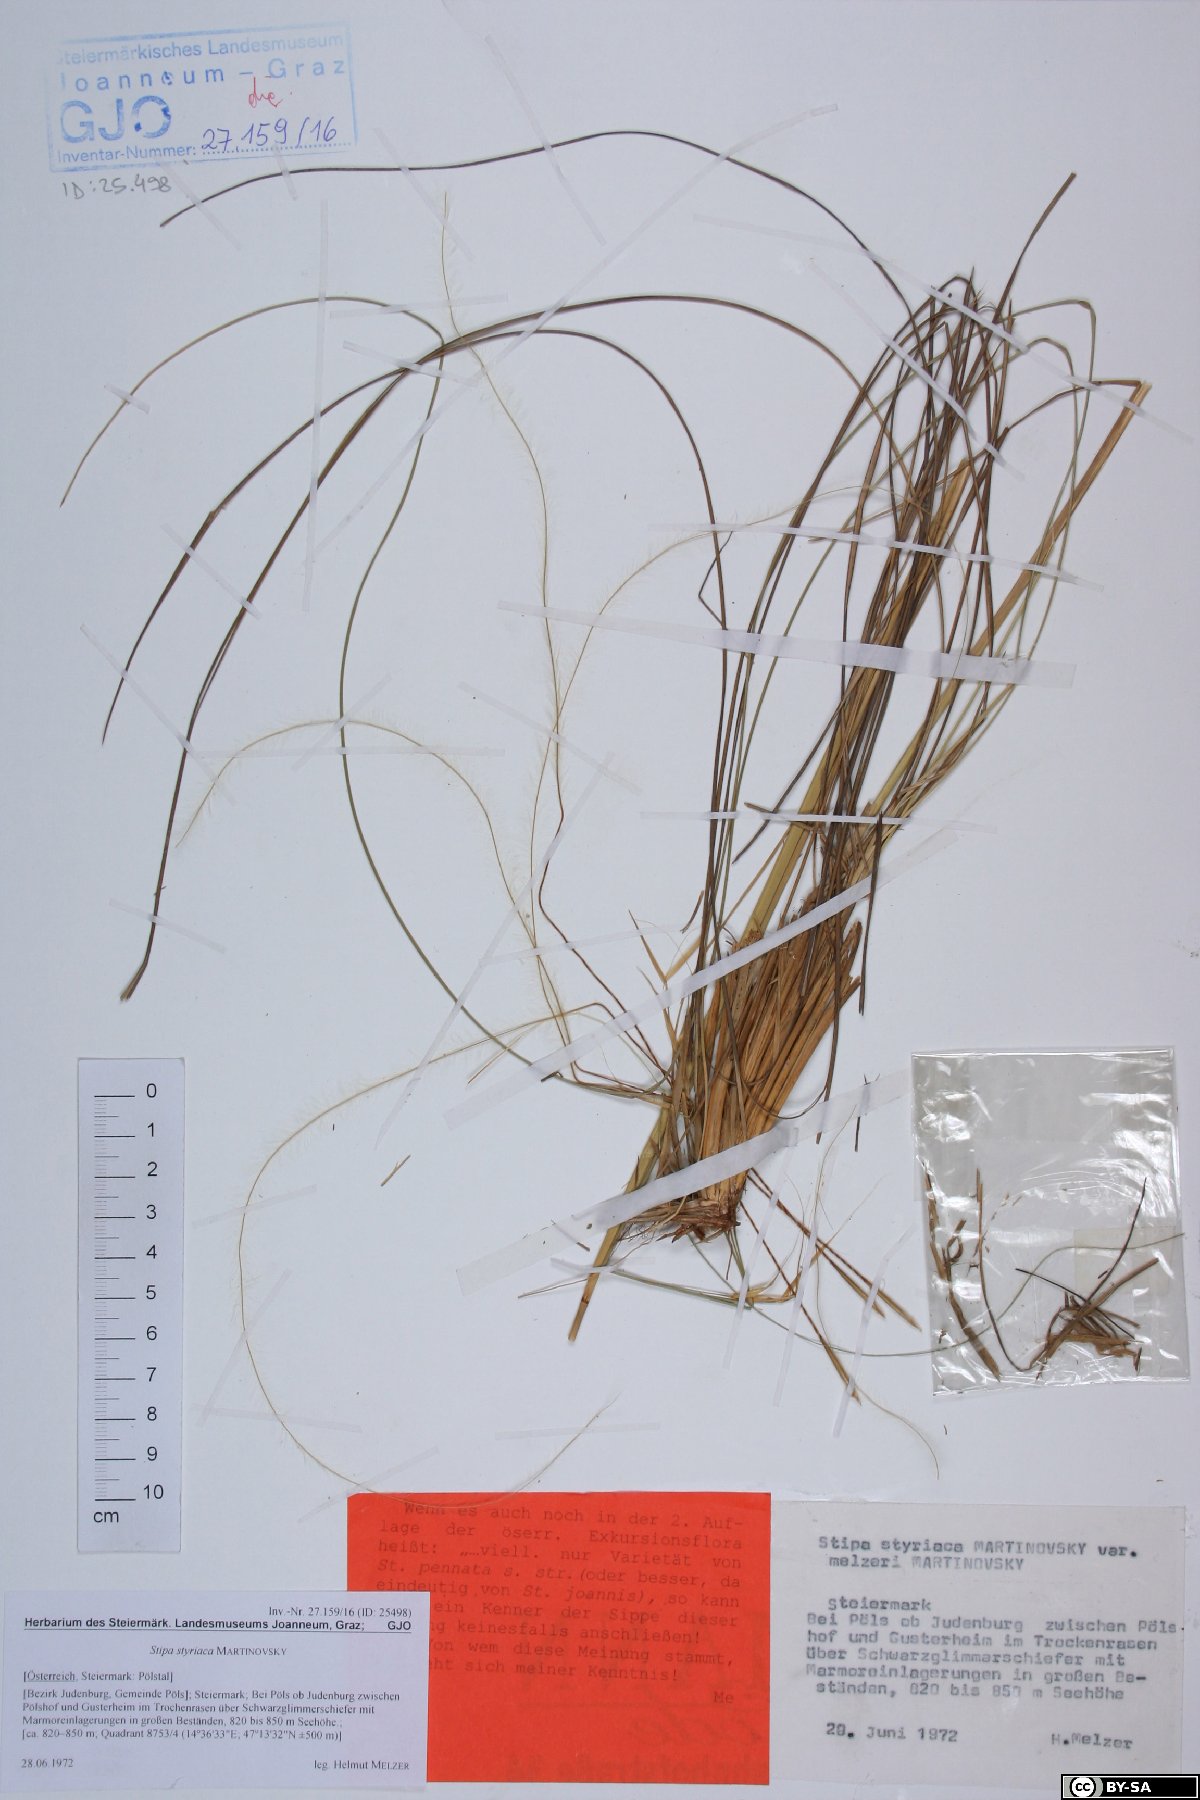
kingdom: Plantae
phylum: Tracheophyta
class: Liliopsida
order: Poales
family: Poaceae
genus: Stipa
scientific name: Stipa pennata
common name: European feather grass
